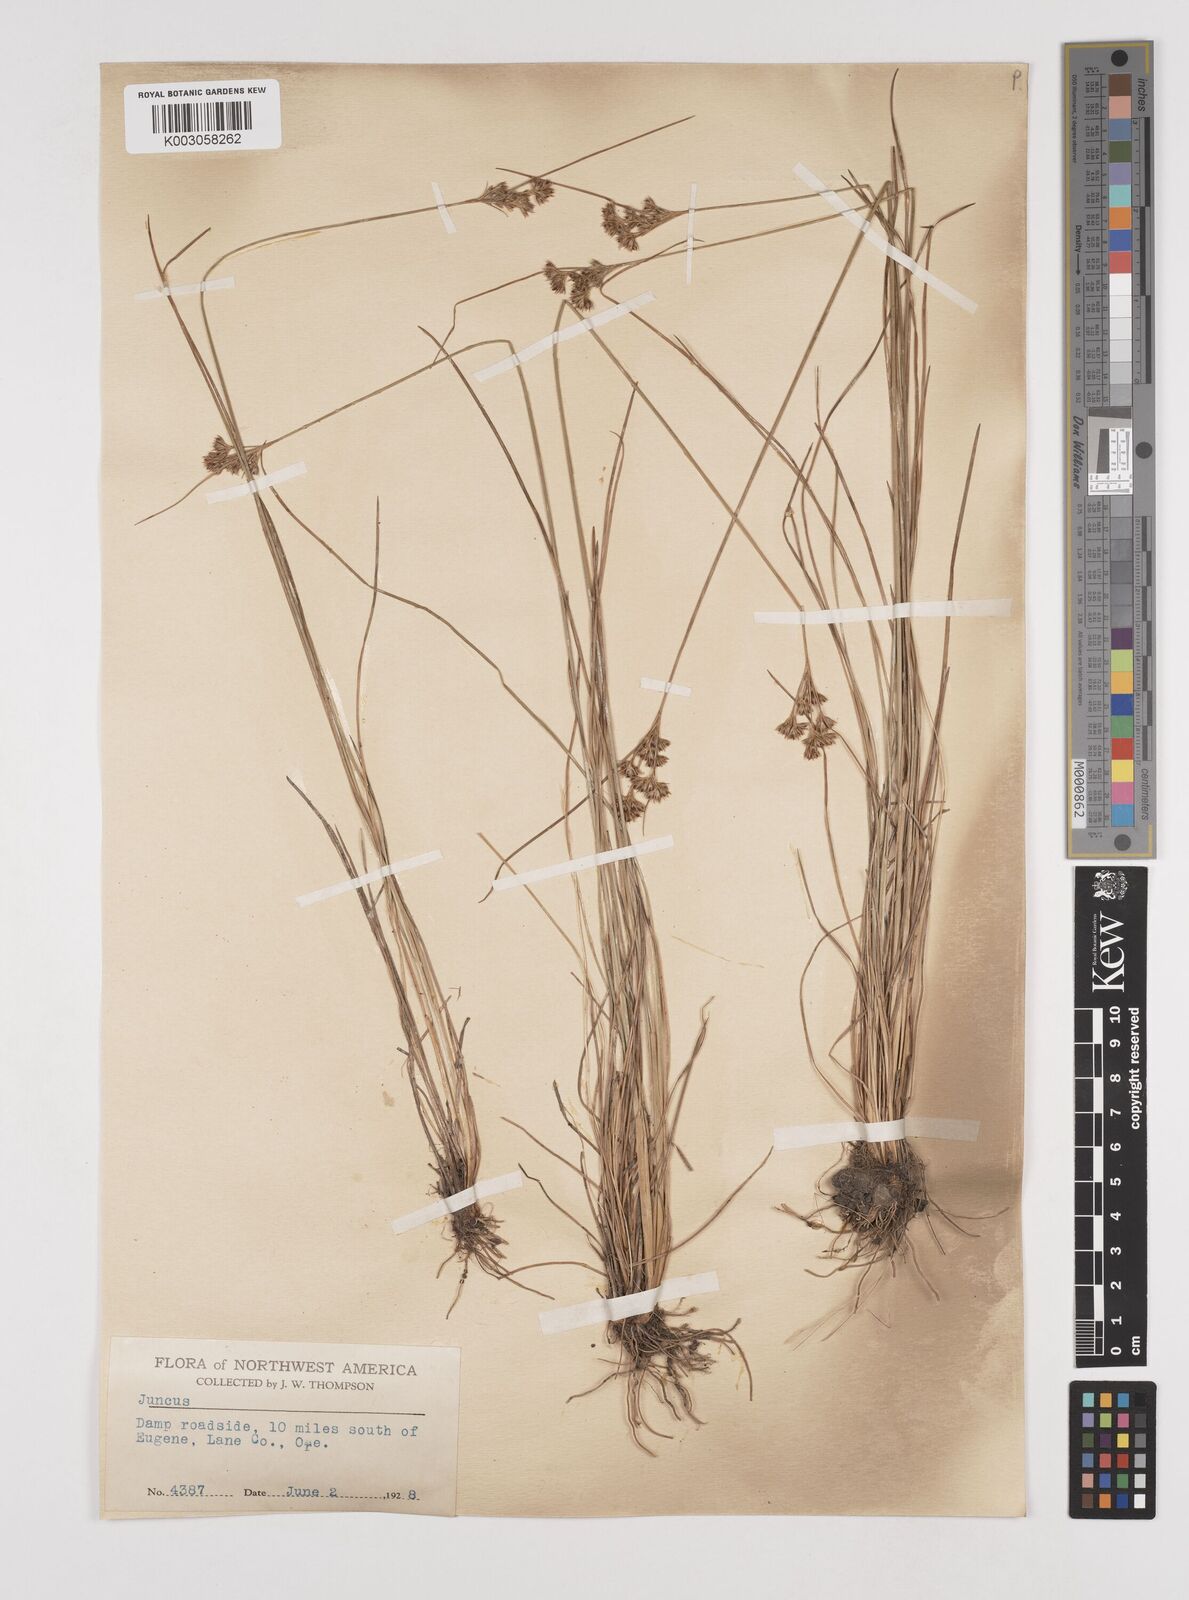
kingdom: Plantae
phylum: Tracheophyta
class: Liliopsida
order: Poales
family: Juncaceae
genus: Juncus
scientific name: Juncus
